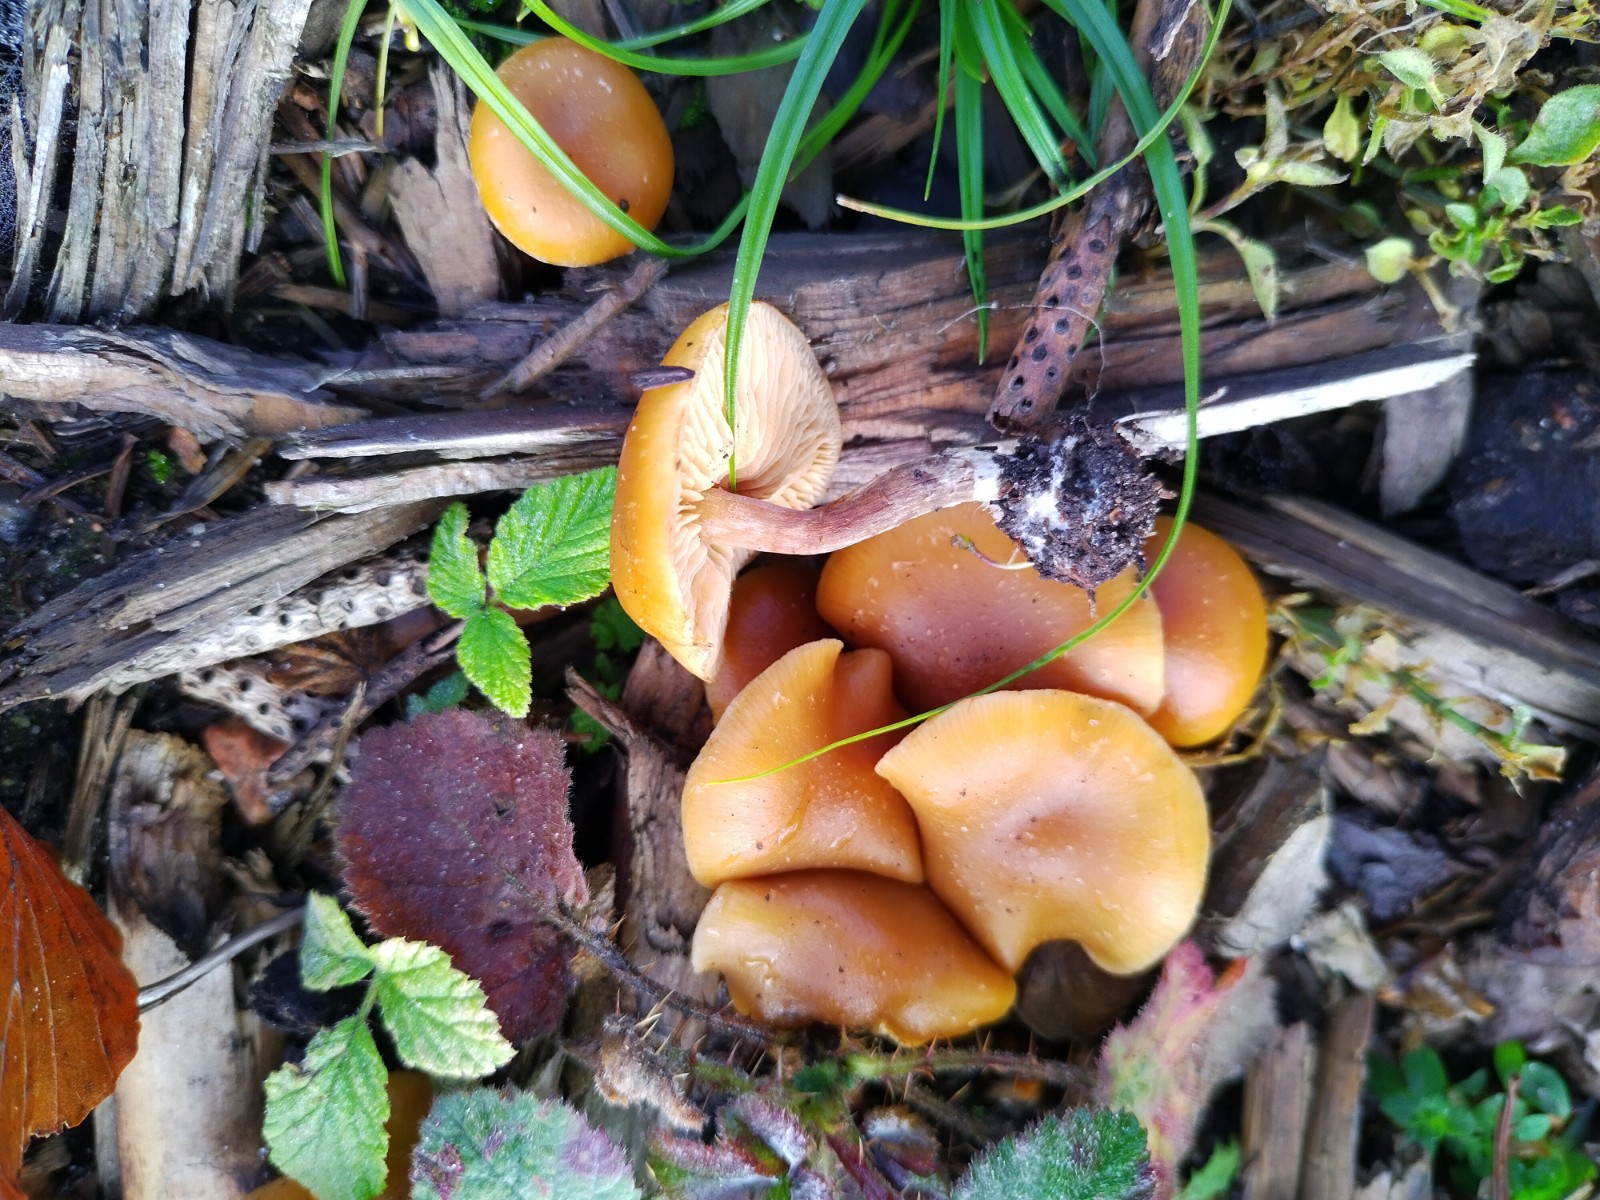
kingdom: Fungi
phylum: Basidiomycota
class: Agaricomycetes
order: Agaricales
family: Hymenogastraceae
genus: Galerina
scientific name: Galerina sideroides
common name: træflis-hjelmhat
